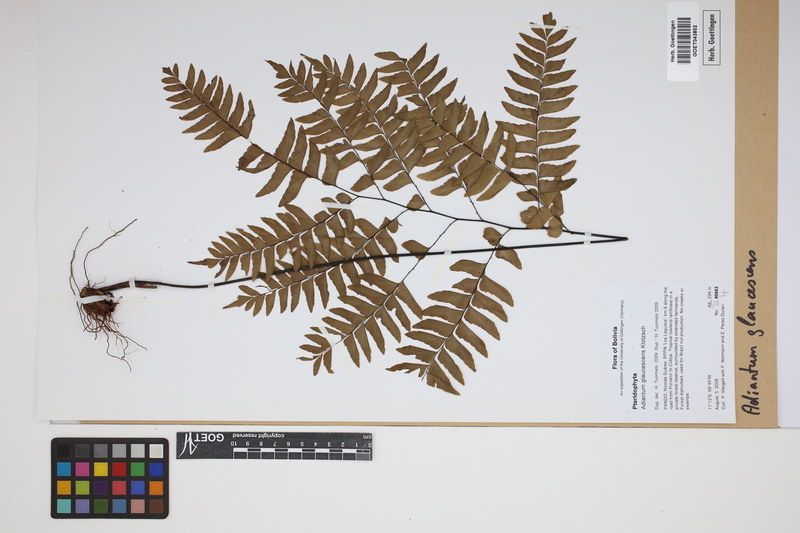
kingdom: Plantae
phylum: Tracheophyta
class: Polypodiopsida
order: Polypodiales
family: Pteridaceae
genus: Adiantum
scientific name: Adiantum glaucescens
